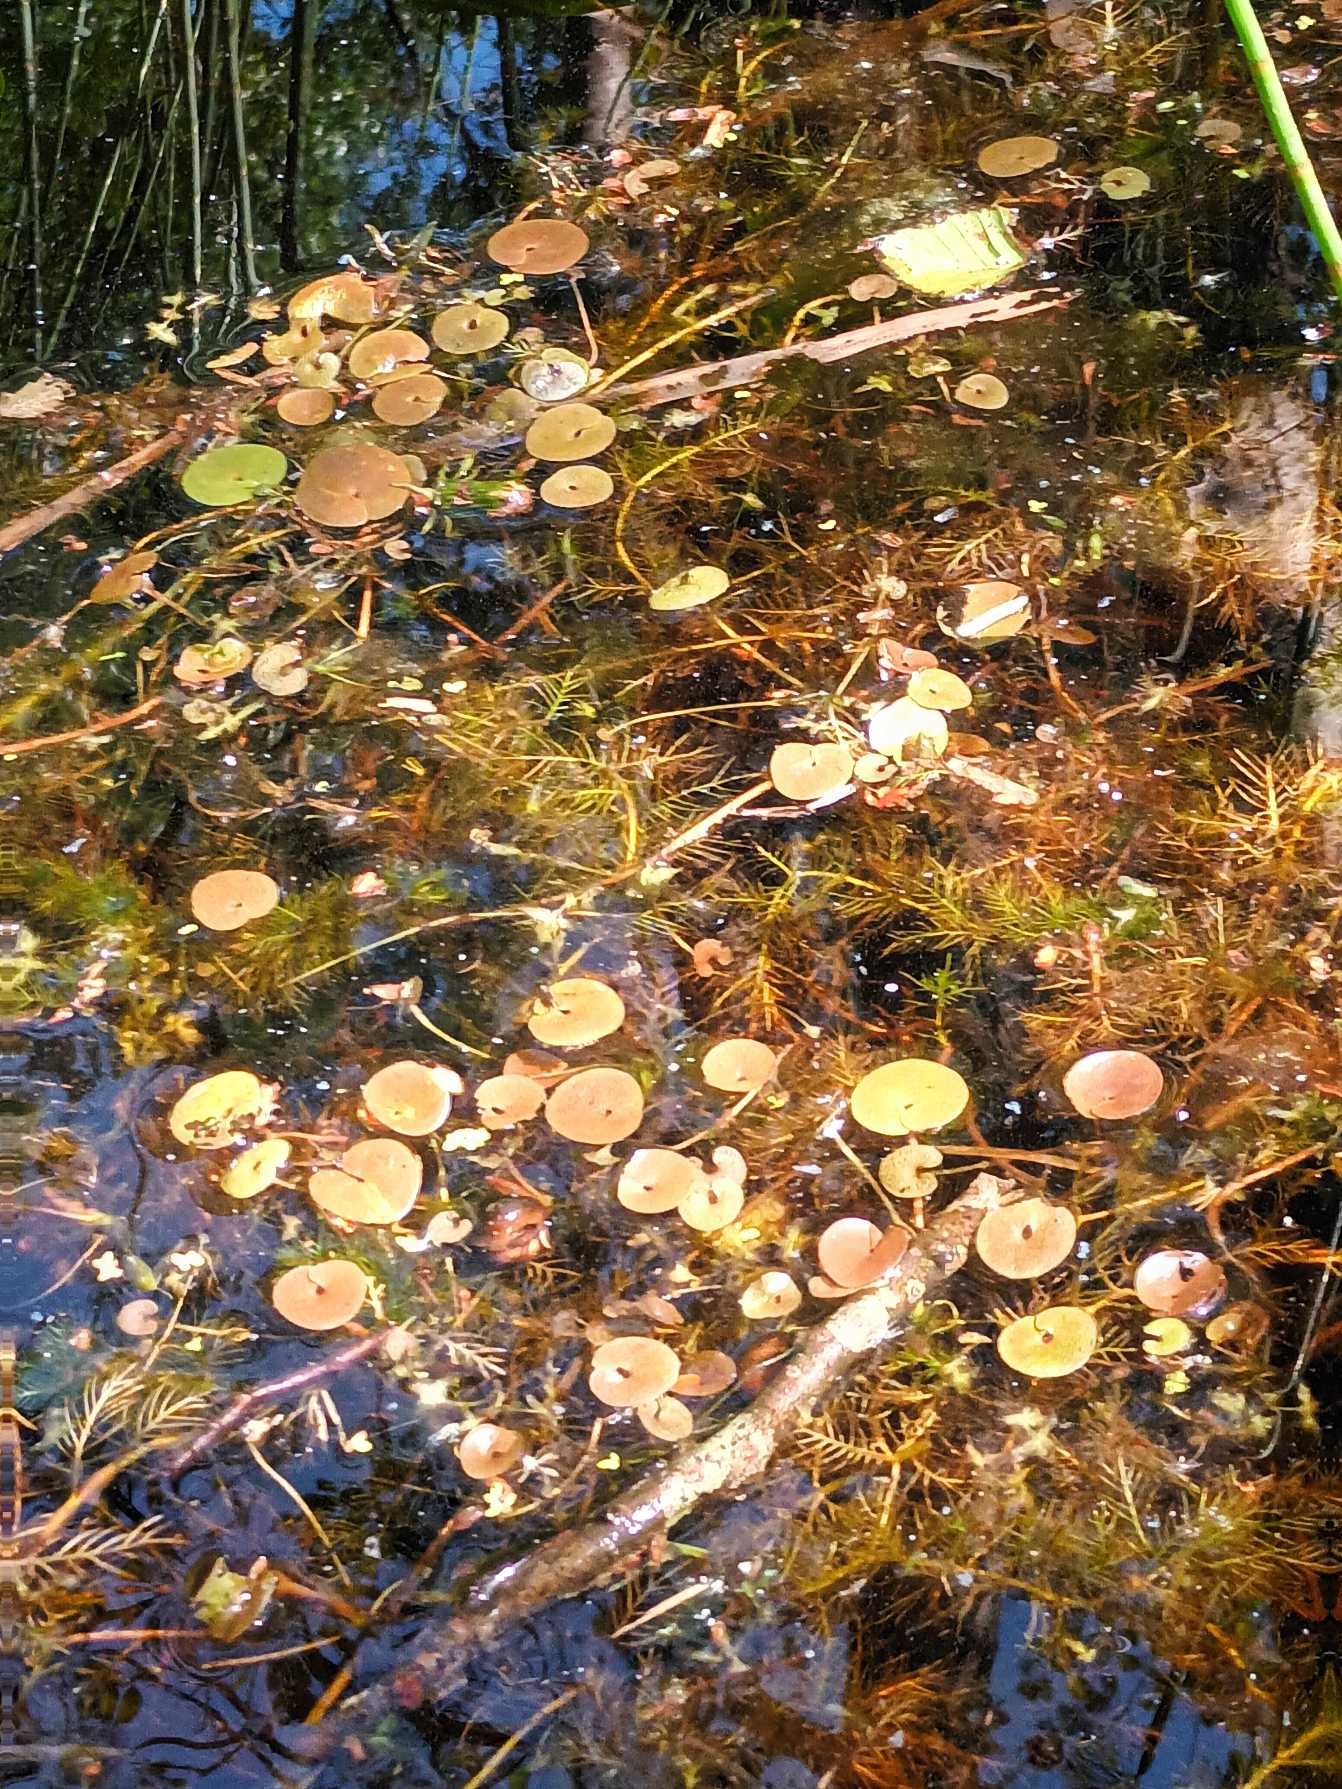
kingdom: Plantae
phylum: Tracheophyta
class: Liliopsida
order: Alismatales
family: Hydrocharitaceae
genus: Hydrocharis
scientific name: Hydrocharis morsus-ranae
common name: Frøbid
